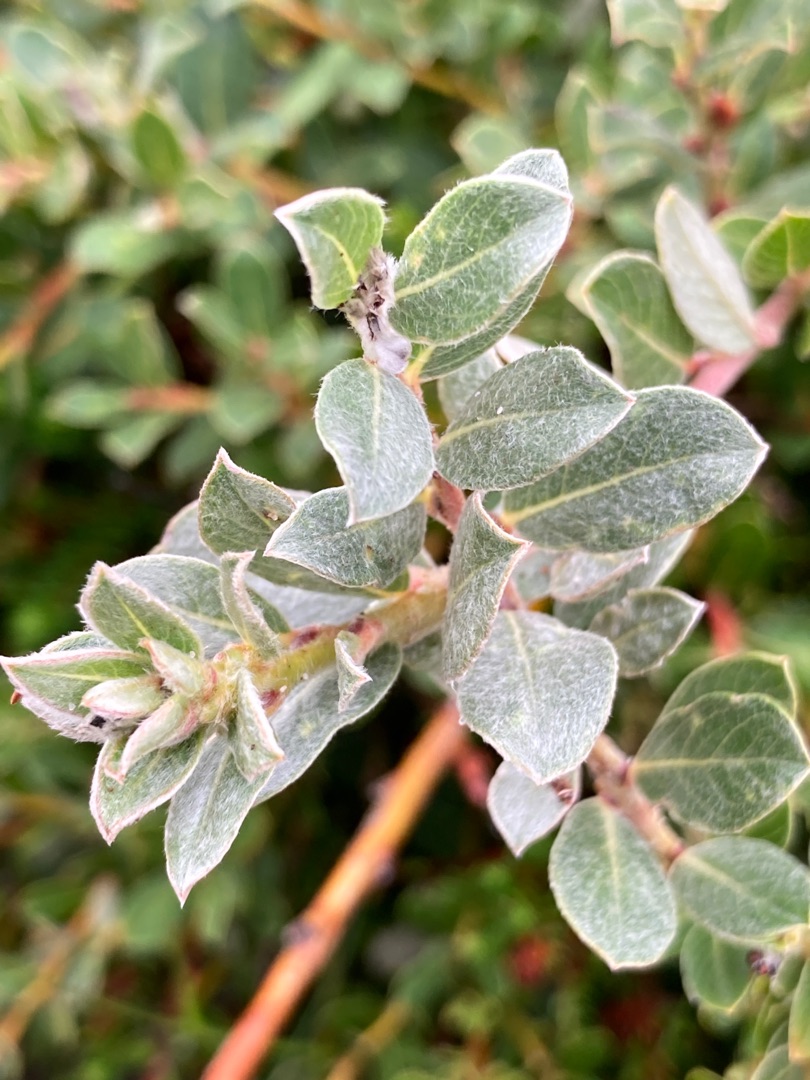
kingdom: Plantae
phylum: Tracheophyta
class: Magnoliopsida
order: Malpighiales
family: Salicaceae
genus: Salix
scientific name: Salix repens
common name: Gråris
